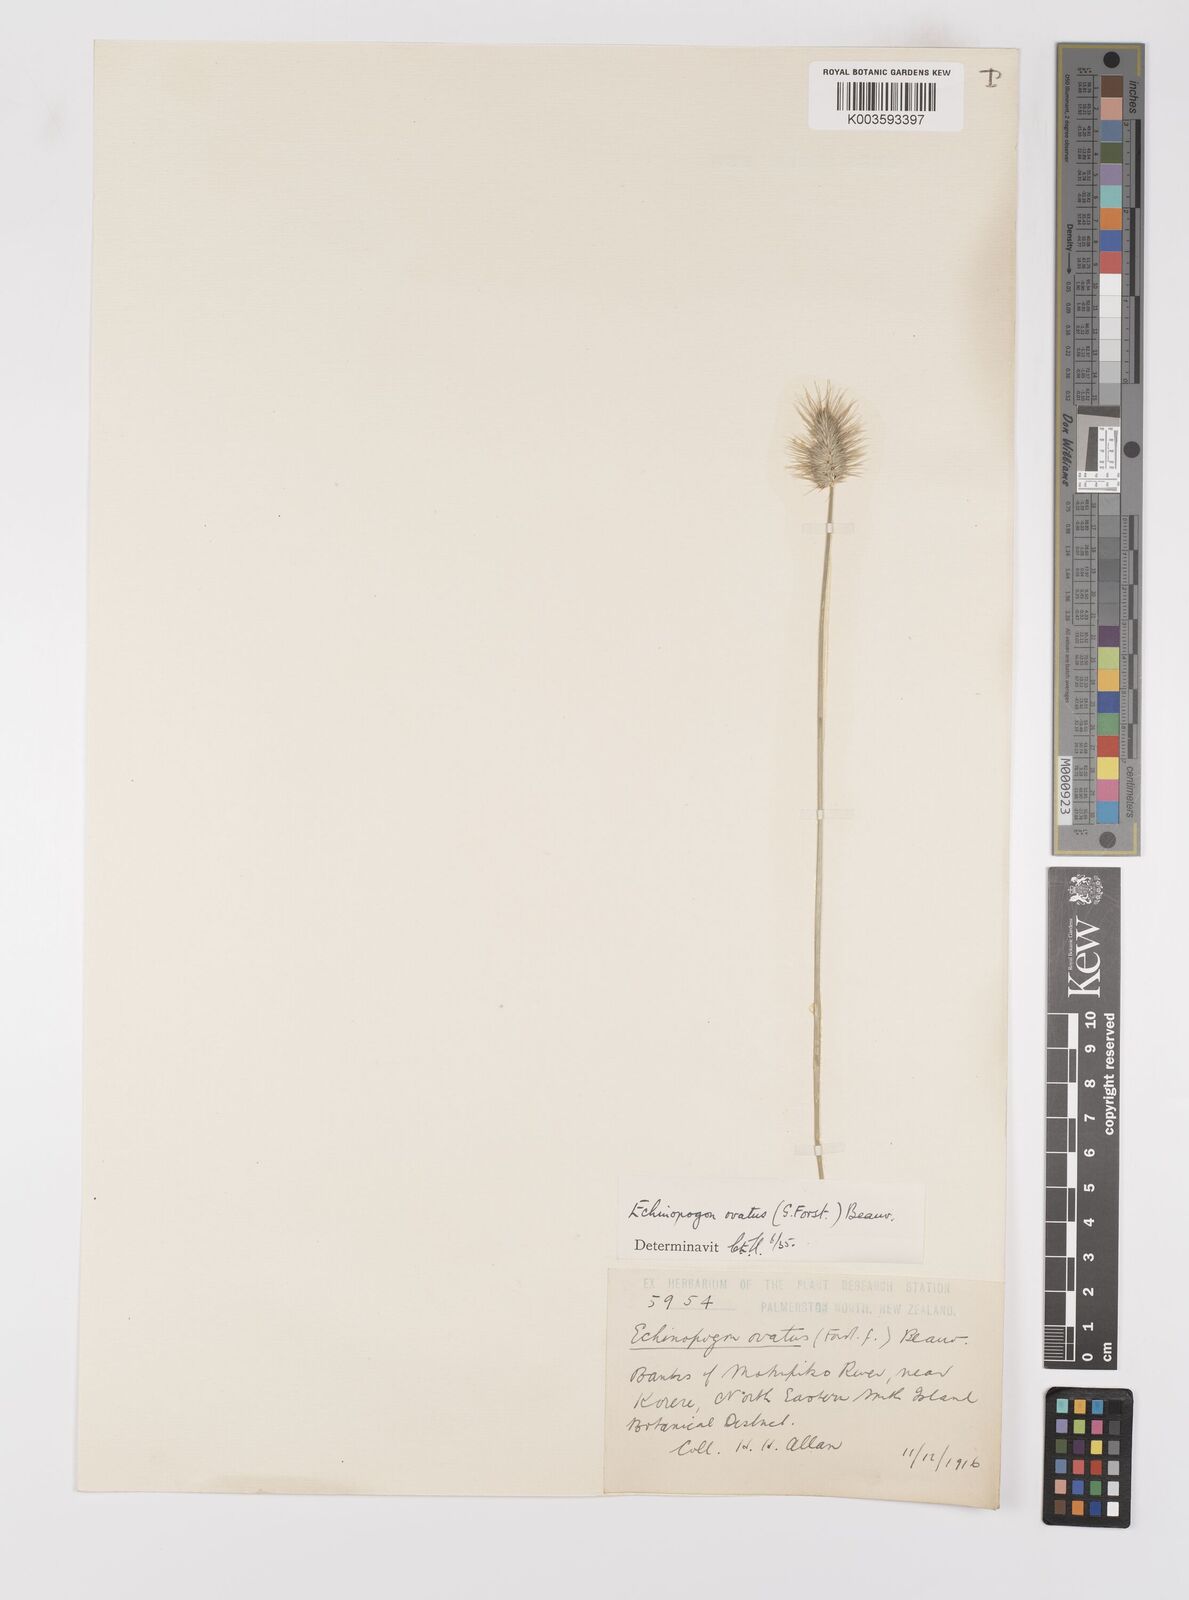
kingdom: Plantae
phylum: Tracheophyta
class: Liliopsida
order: Poales
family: Poaceae
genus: Echinopogon
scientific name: Echinopogon ovatus
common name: Hedgehog-grass
